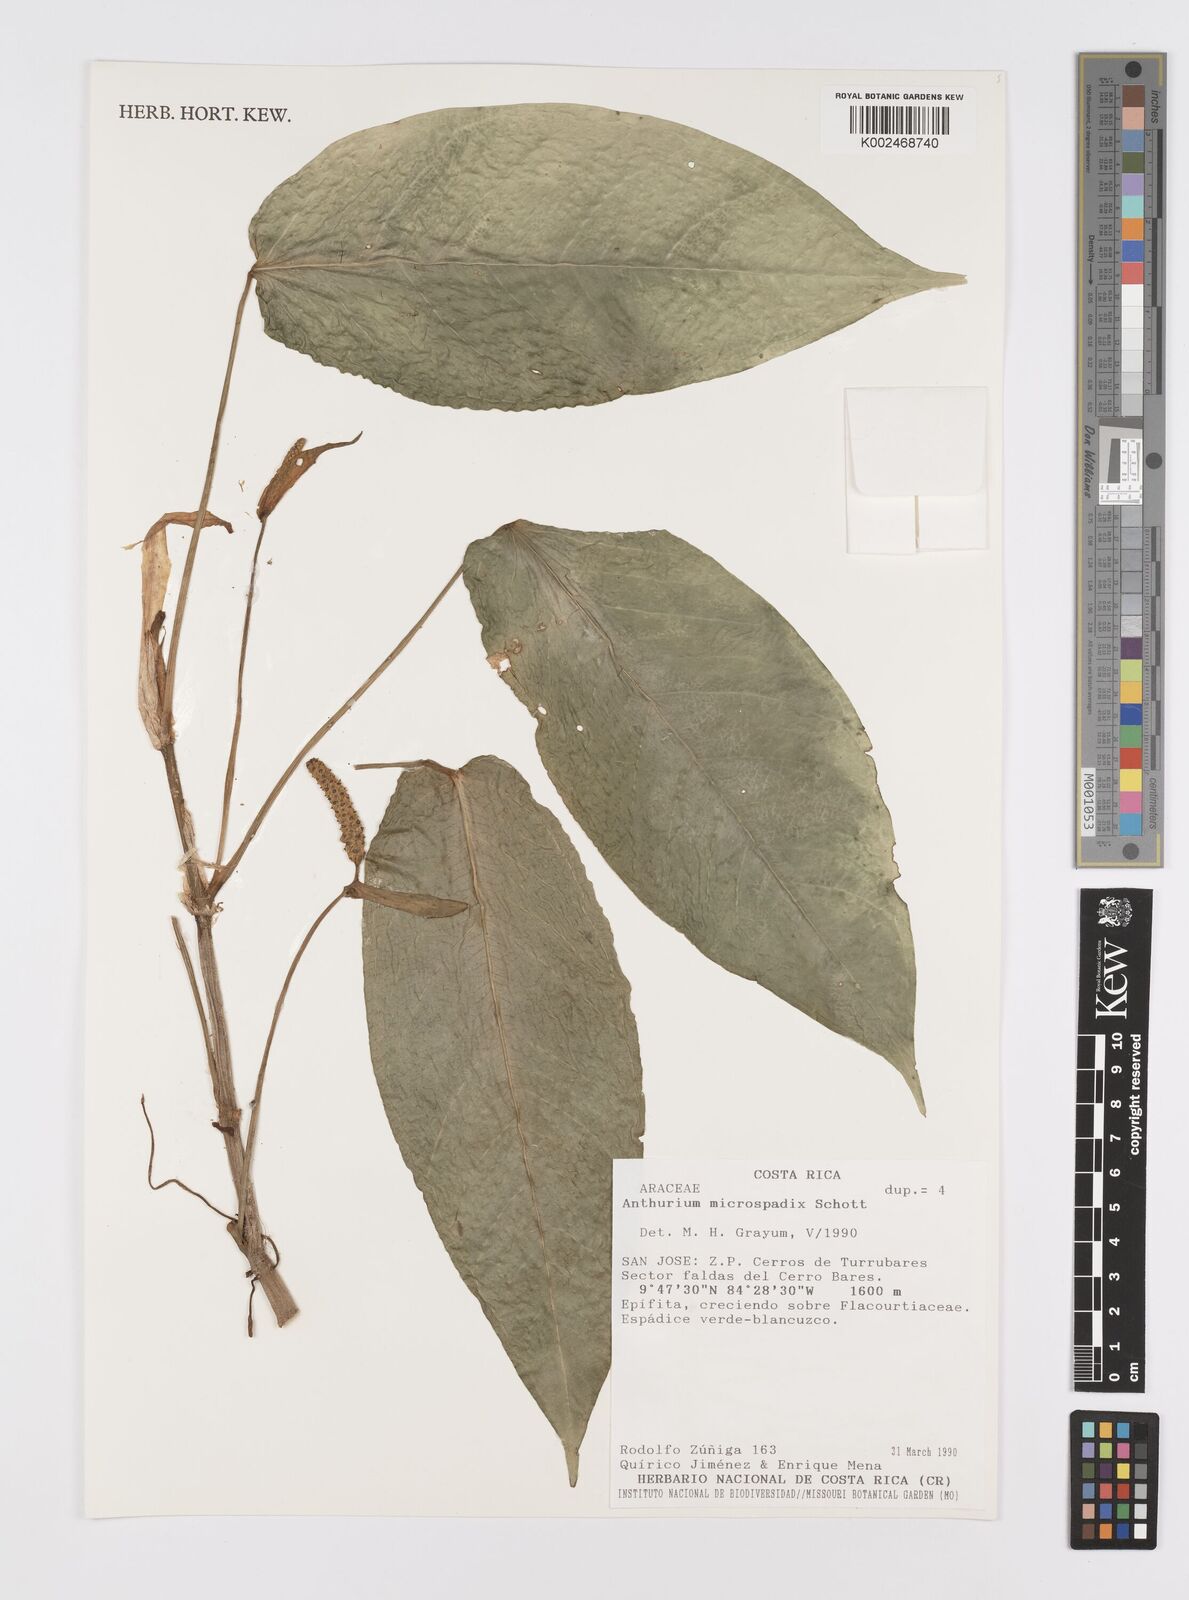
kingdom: Plantae
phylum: Tracheophyta
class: Liliopsida
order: Alismatales
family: Araceae
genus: Anthurium
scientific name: Anthurium microspadix
